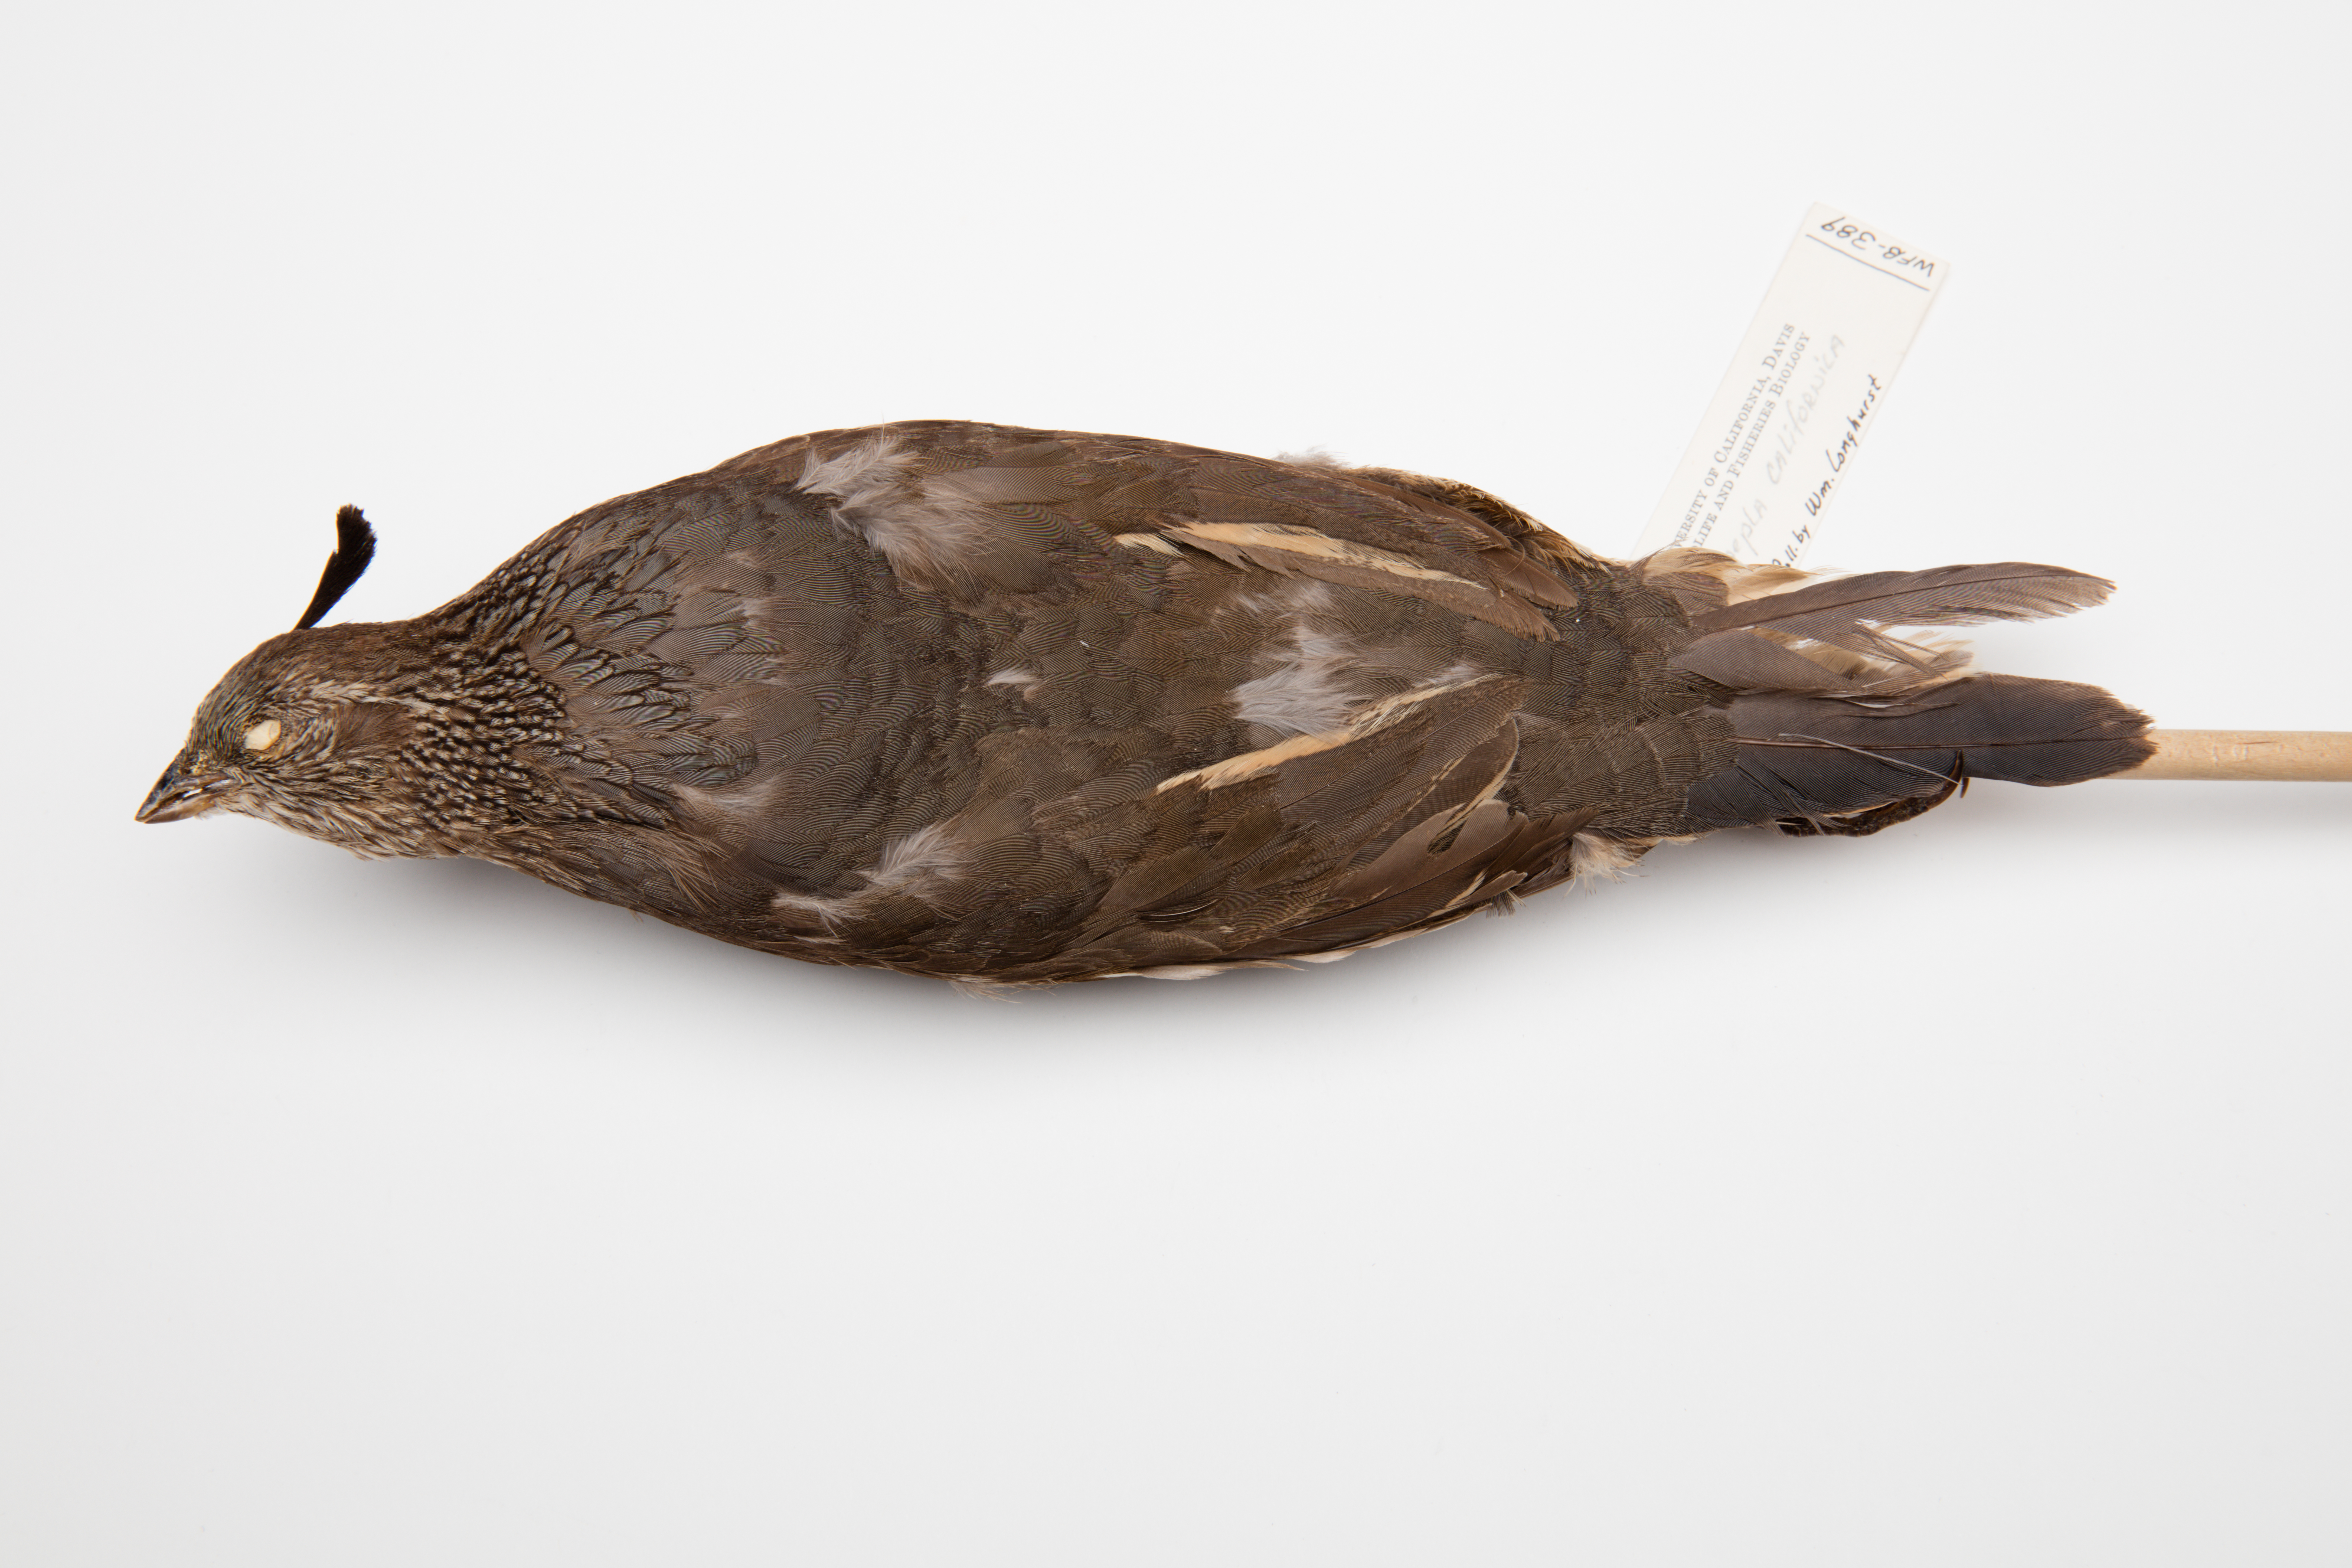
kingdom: Animalia
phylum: Chordata
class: Aves
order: Galliformes
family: Odontophoridae
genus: Callipepla
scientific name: Callipepla californica
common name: California quail
